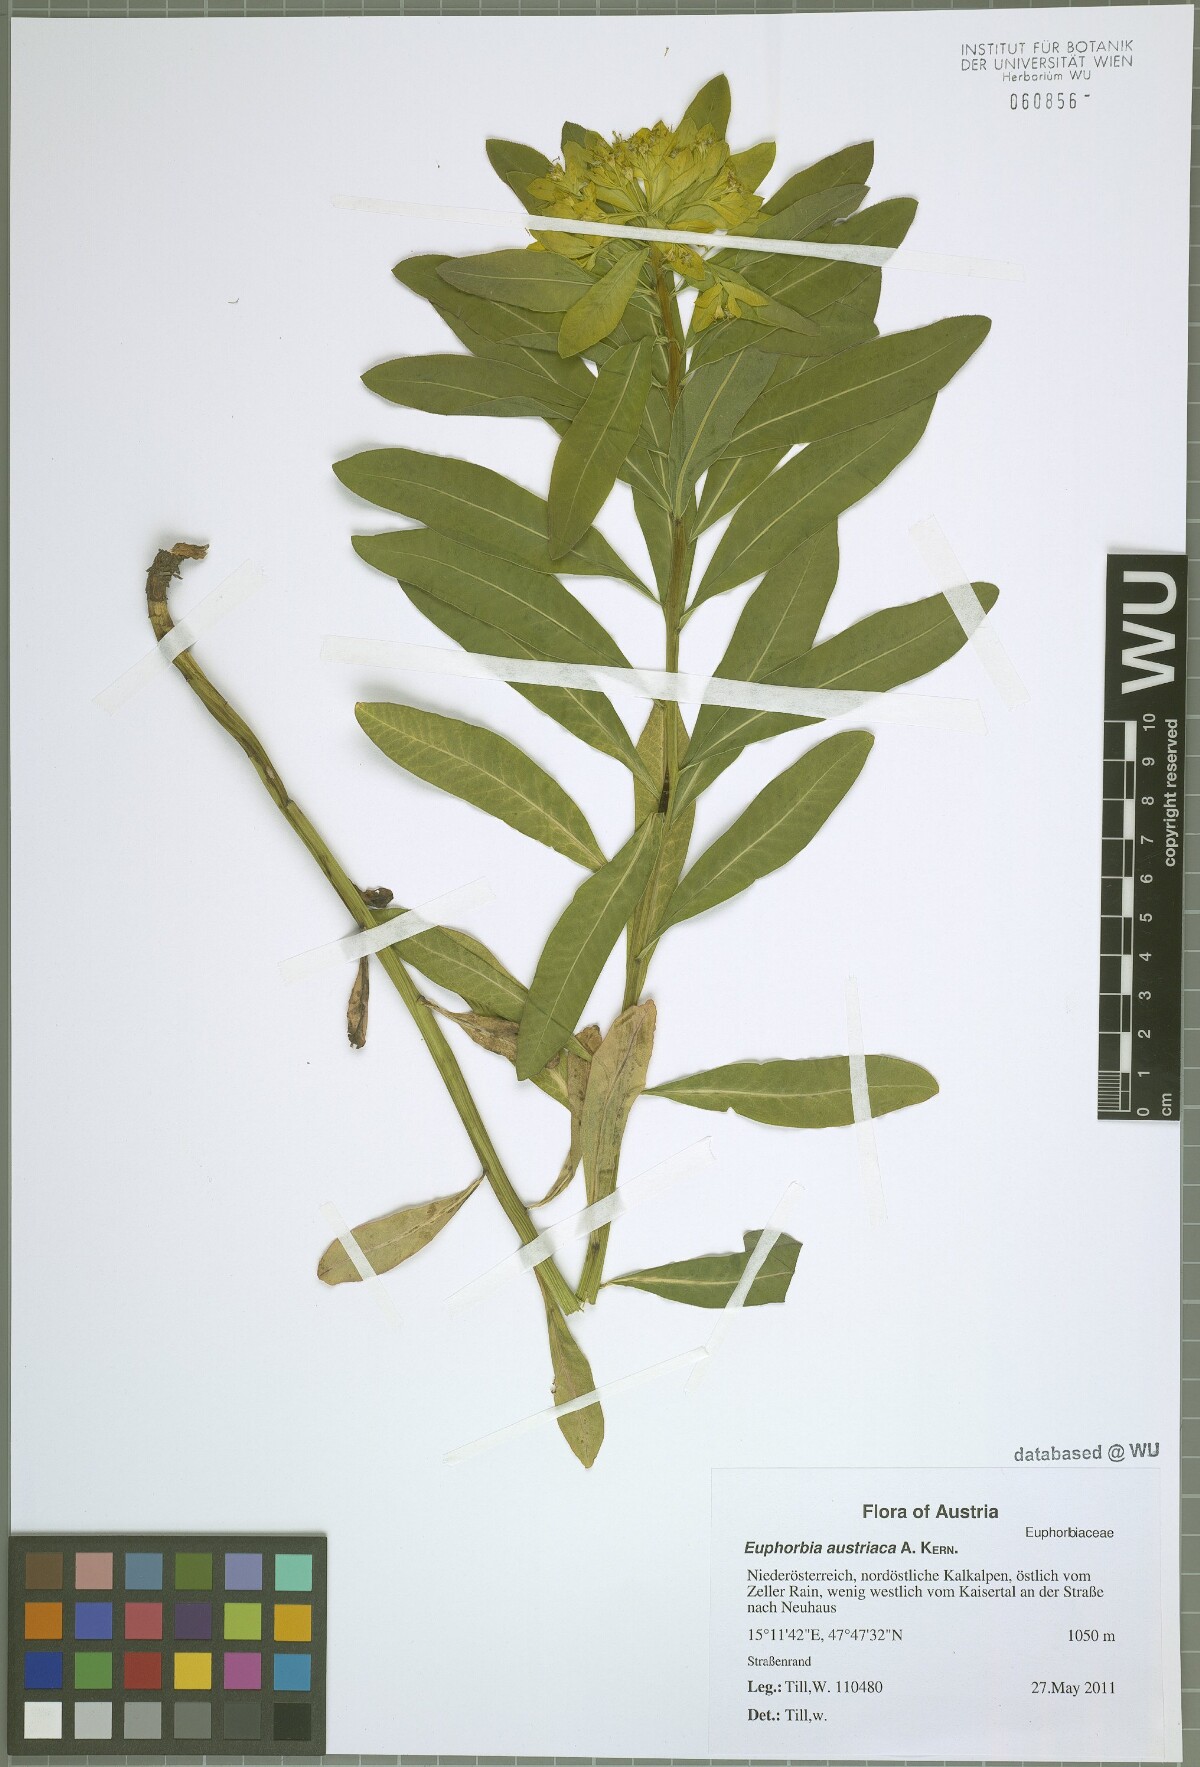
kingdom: Plantae
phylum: Tracheophyta
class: Magnoliopsida
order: Malpighiales
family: Euphorbiaceae
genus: Euphorbia
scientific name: Euphorbia austriaca
